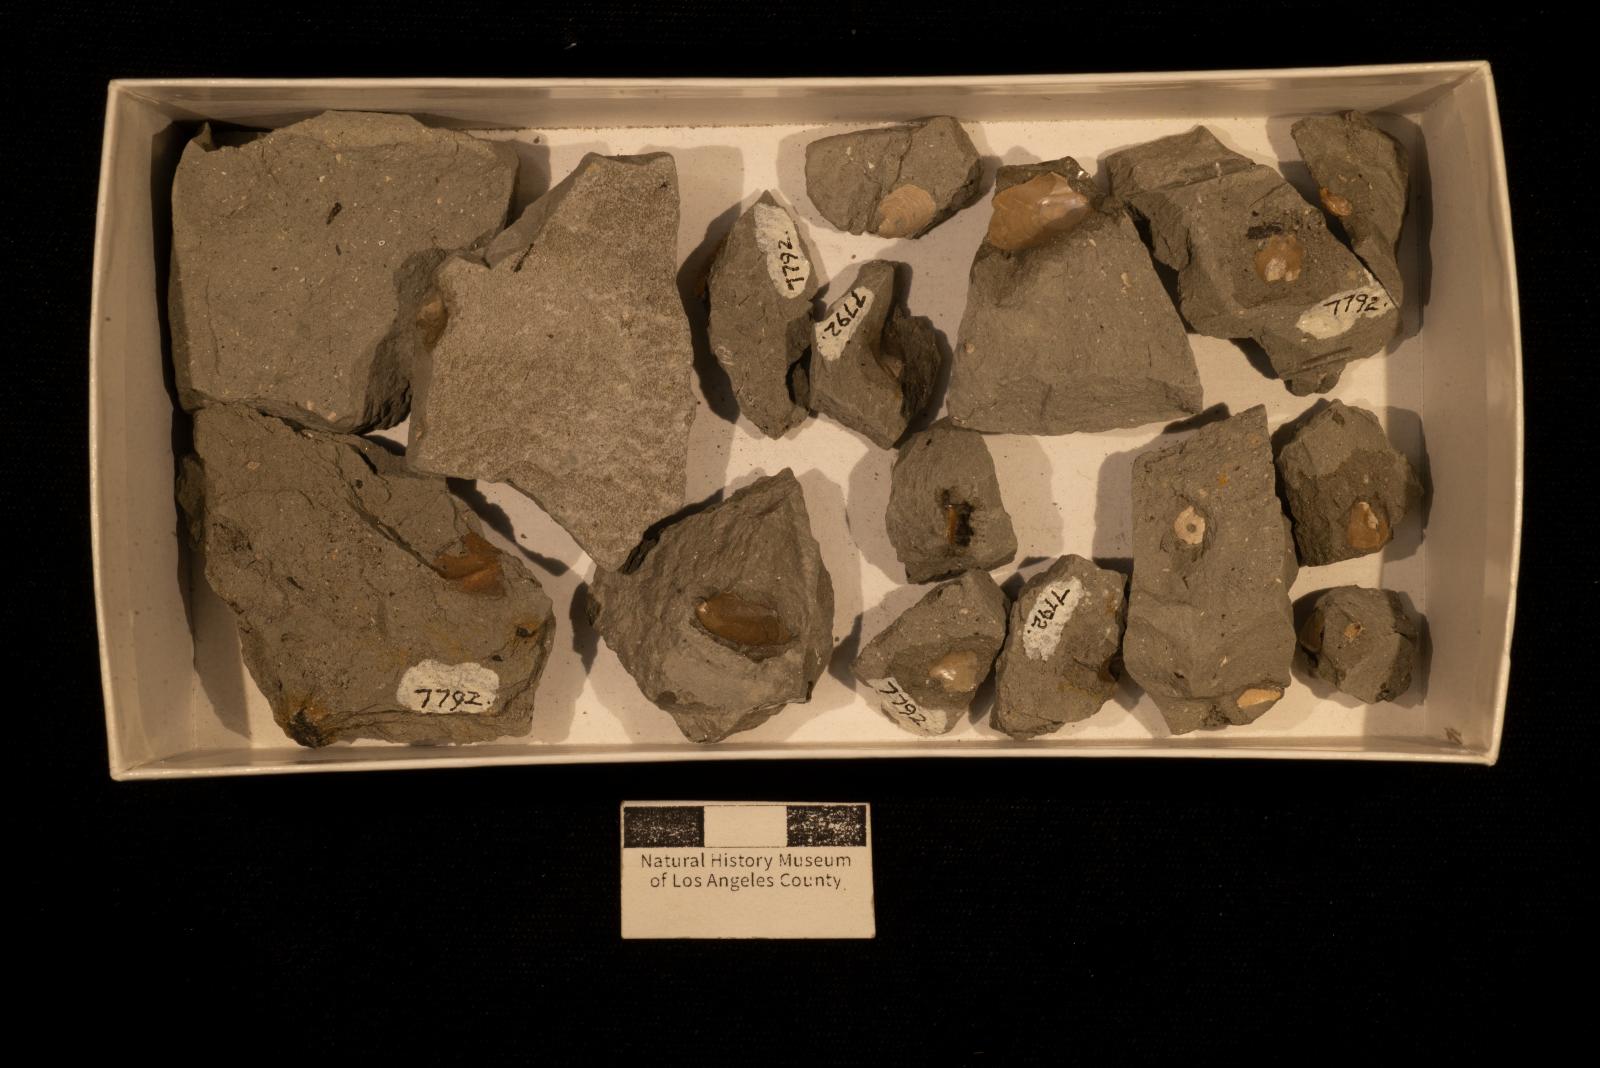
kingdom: Animalia
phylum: Mollusca
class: Bivalvia
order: Ostreida
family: Pteriidae
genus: Pteria
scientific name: Pteria
